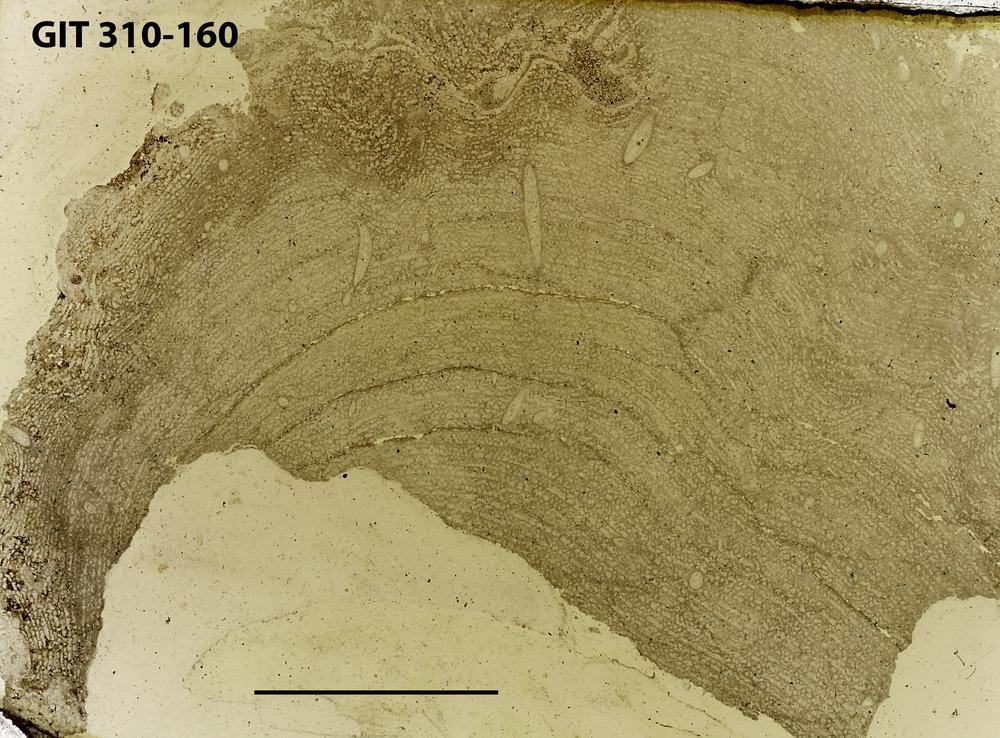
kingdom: Animalia
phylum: Porifera
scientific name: Porifera
